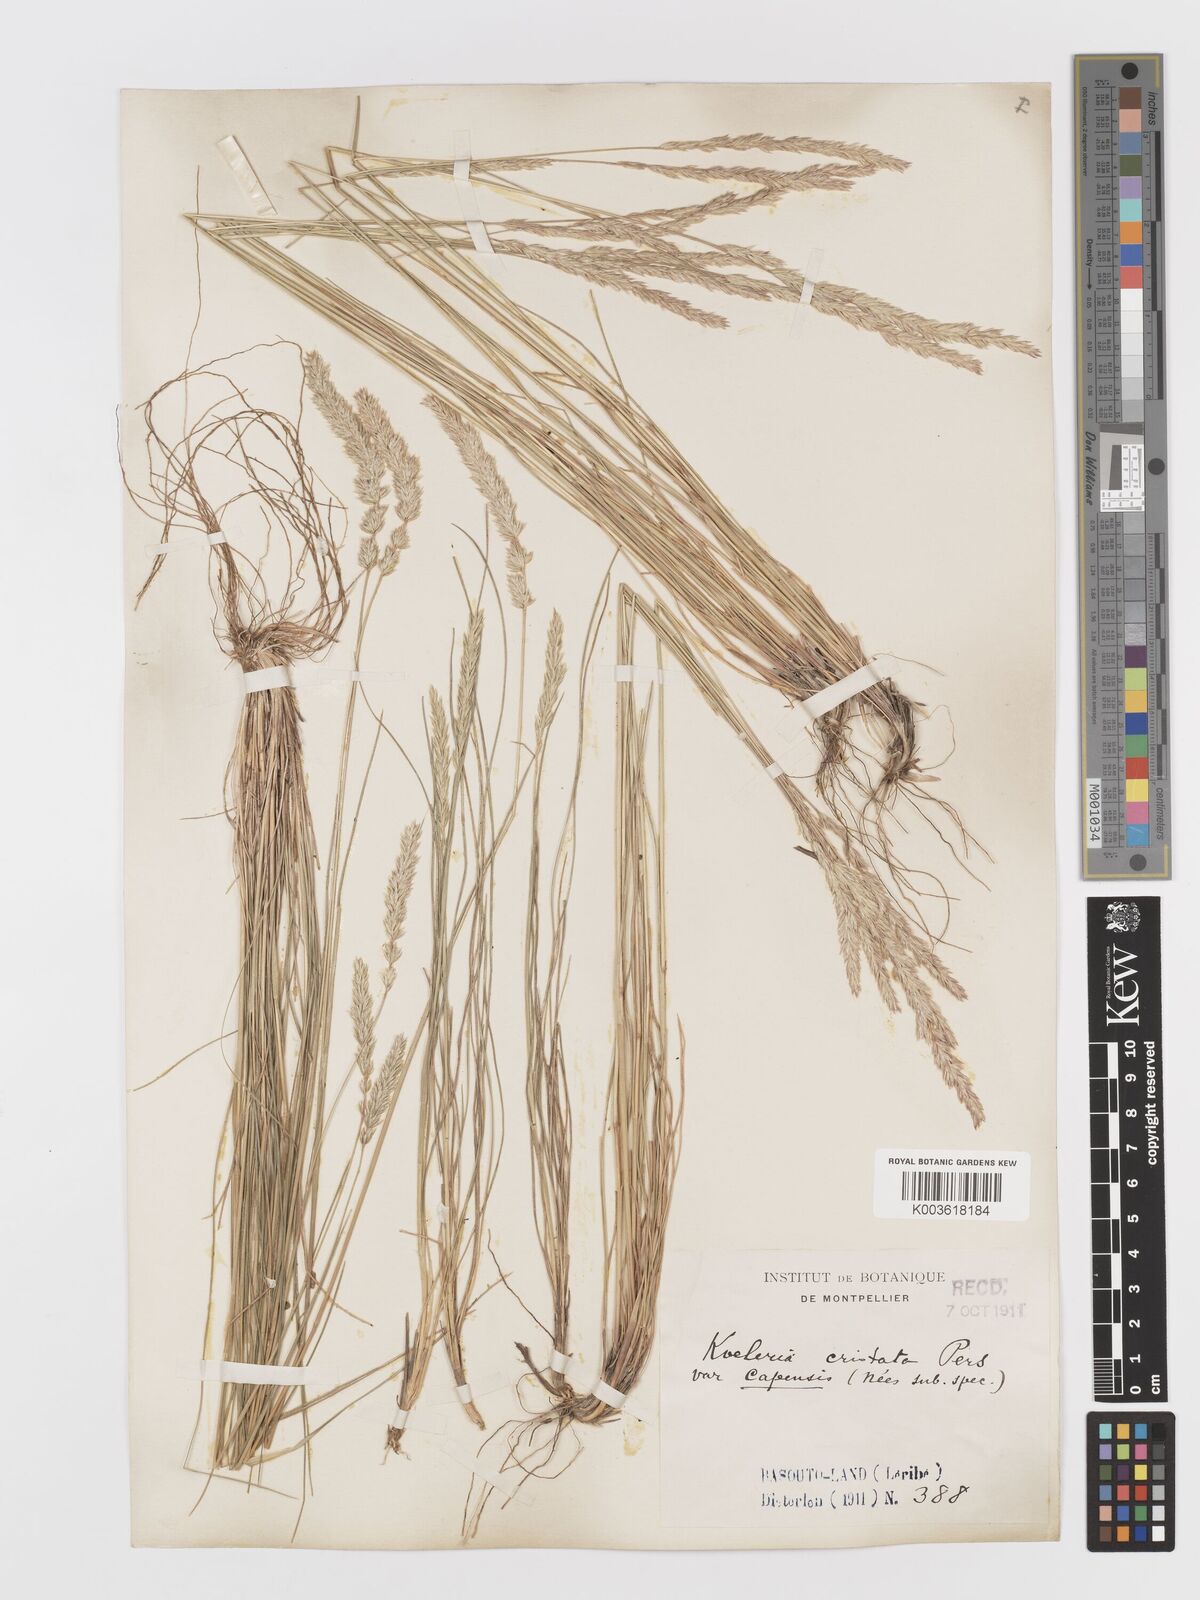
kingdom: Plantae
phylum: Tracheophyta
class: Liliopsida
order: Poales
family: Poaceae
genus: Koeleria
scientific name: Koeleria capensis
